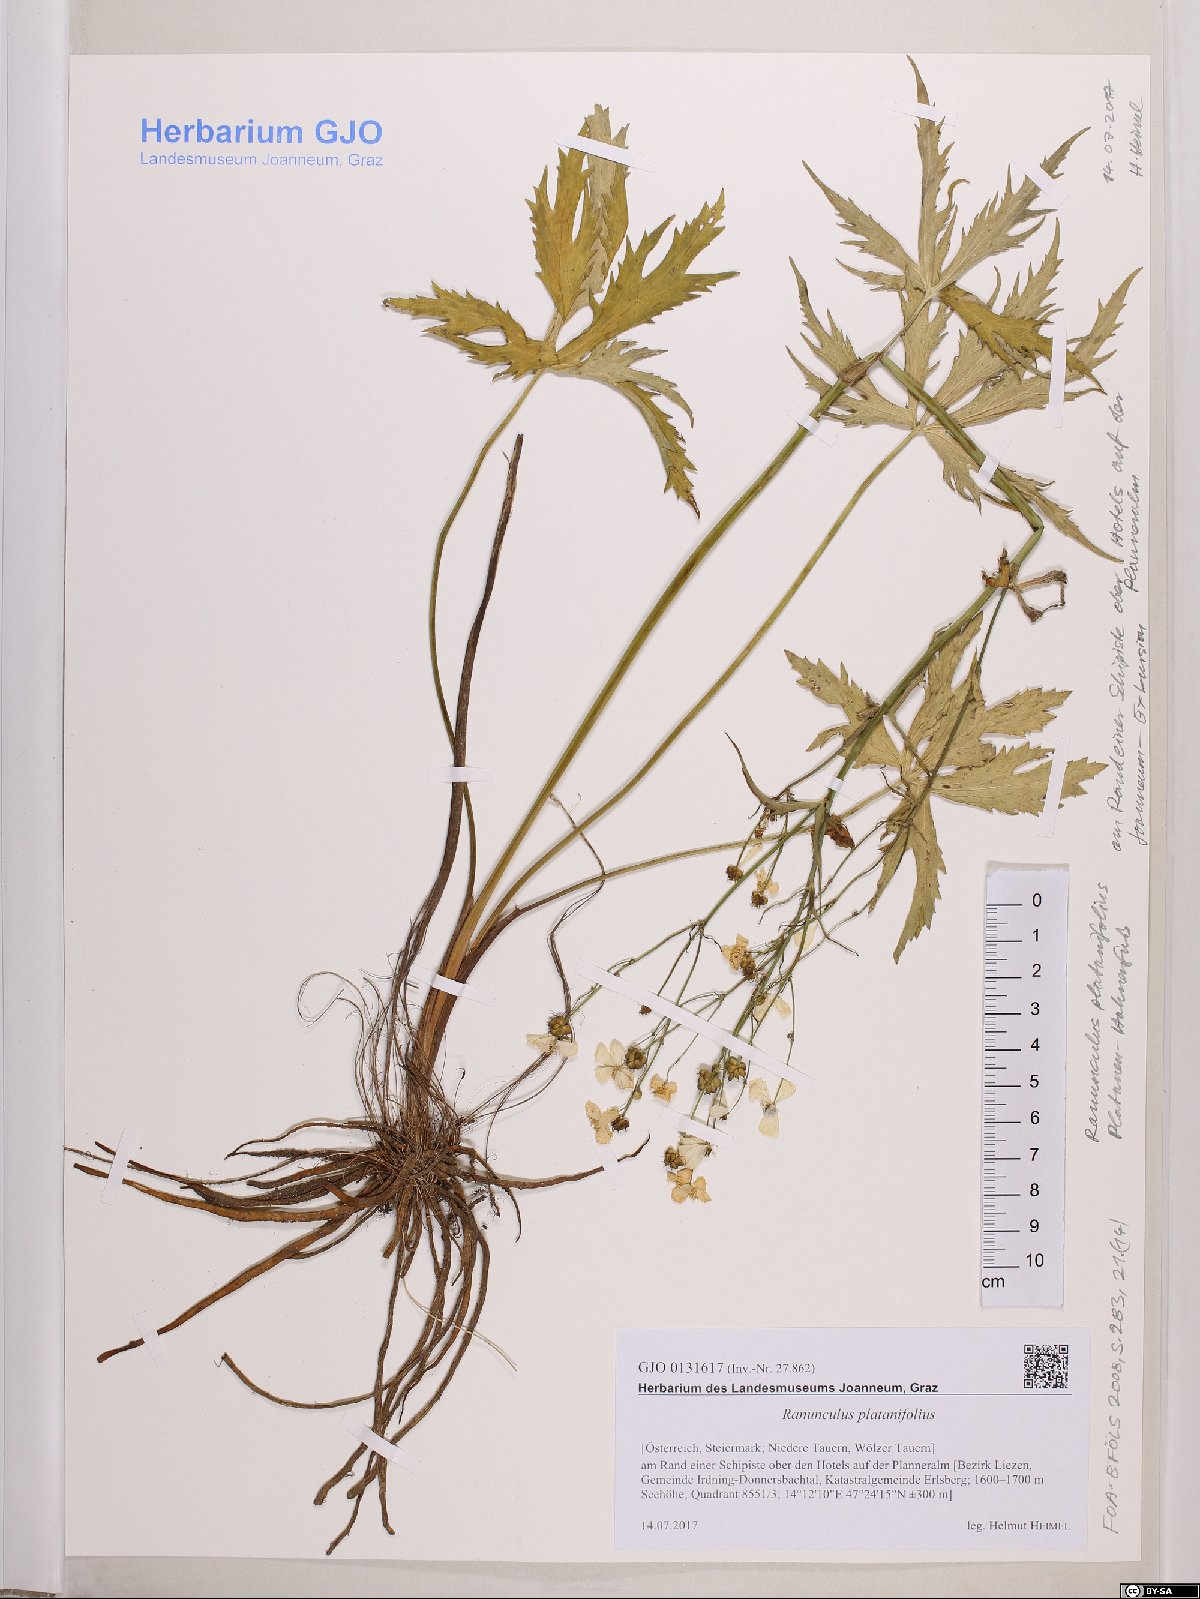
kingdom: Plantae
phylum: Tracheophyta
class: Magnoliopsida
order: Ranunculales
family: Ranunculaceae
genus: Ranunculus
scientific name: Ranunculus platanifolius
